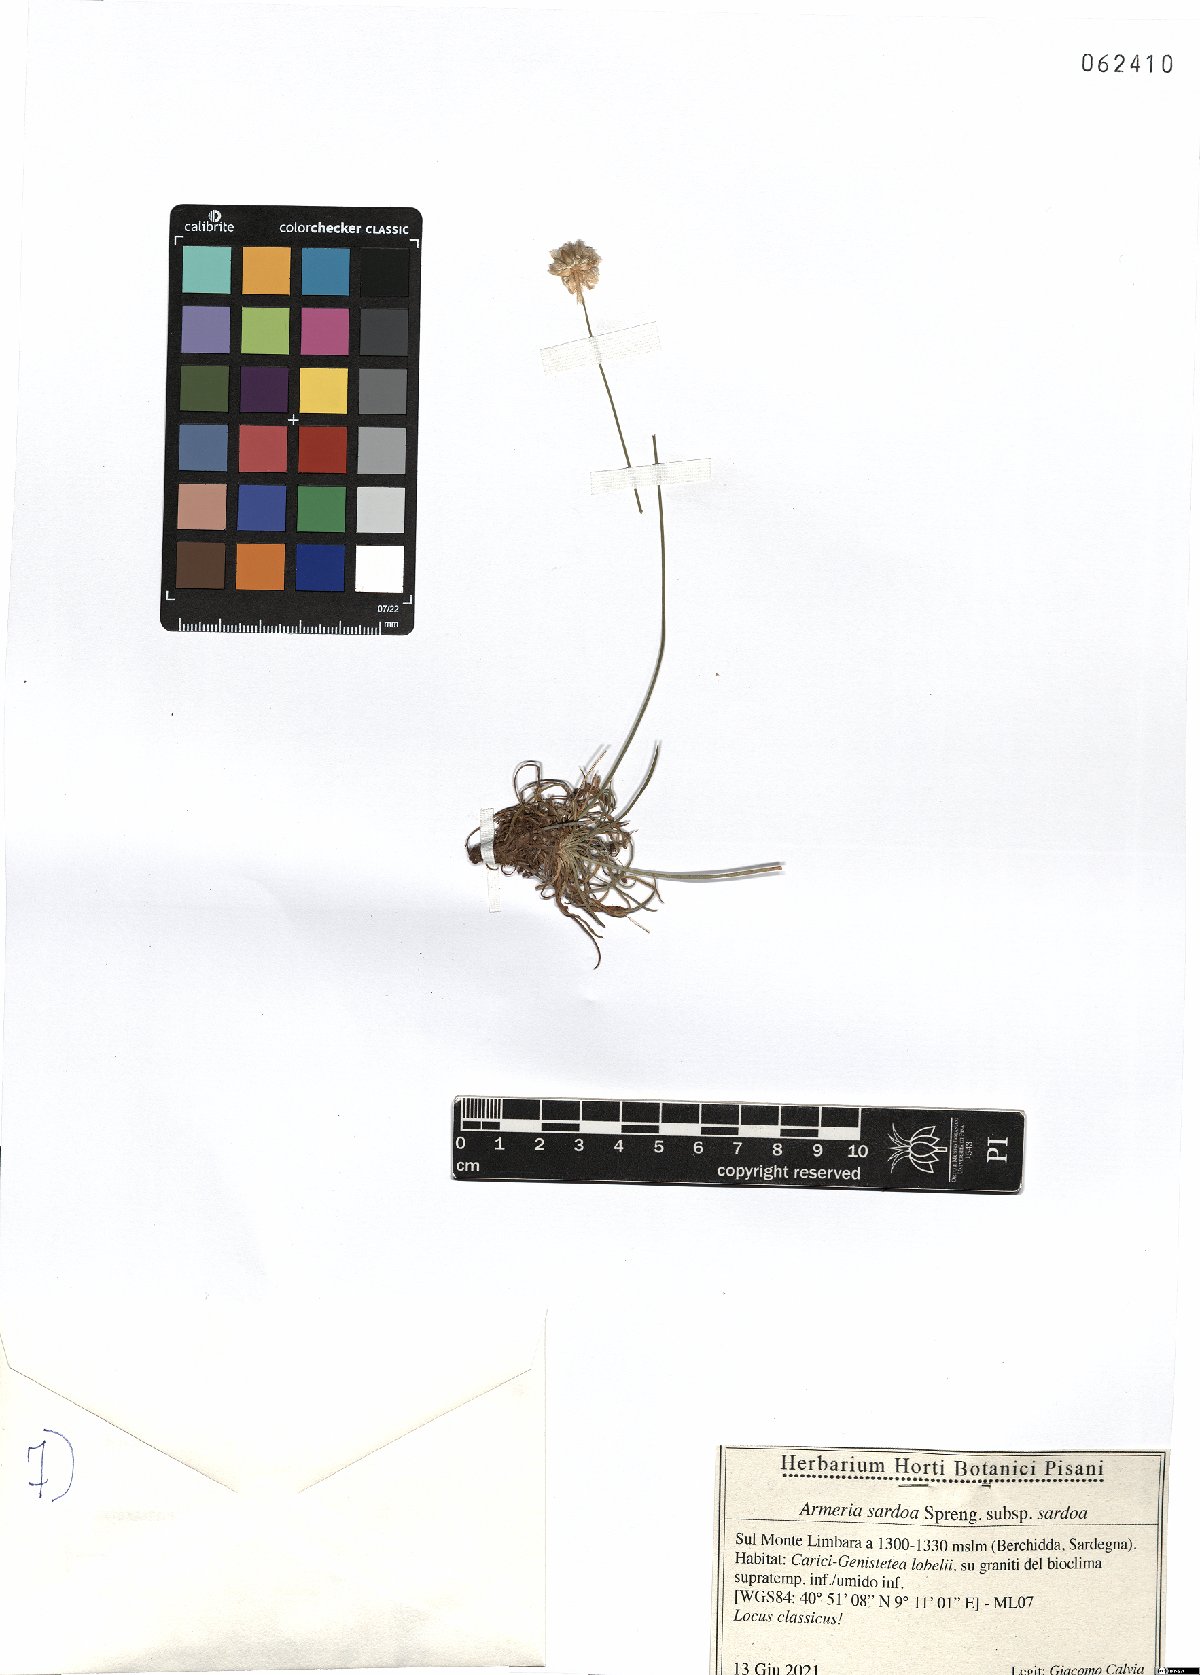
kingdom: Plantae
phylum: Tracheophyta
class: Magnoliopsida
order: Caryophyllales
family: Plumbaginaceae
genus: Armeria
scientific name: Armeria sardoa
